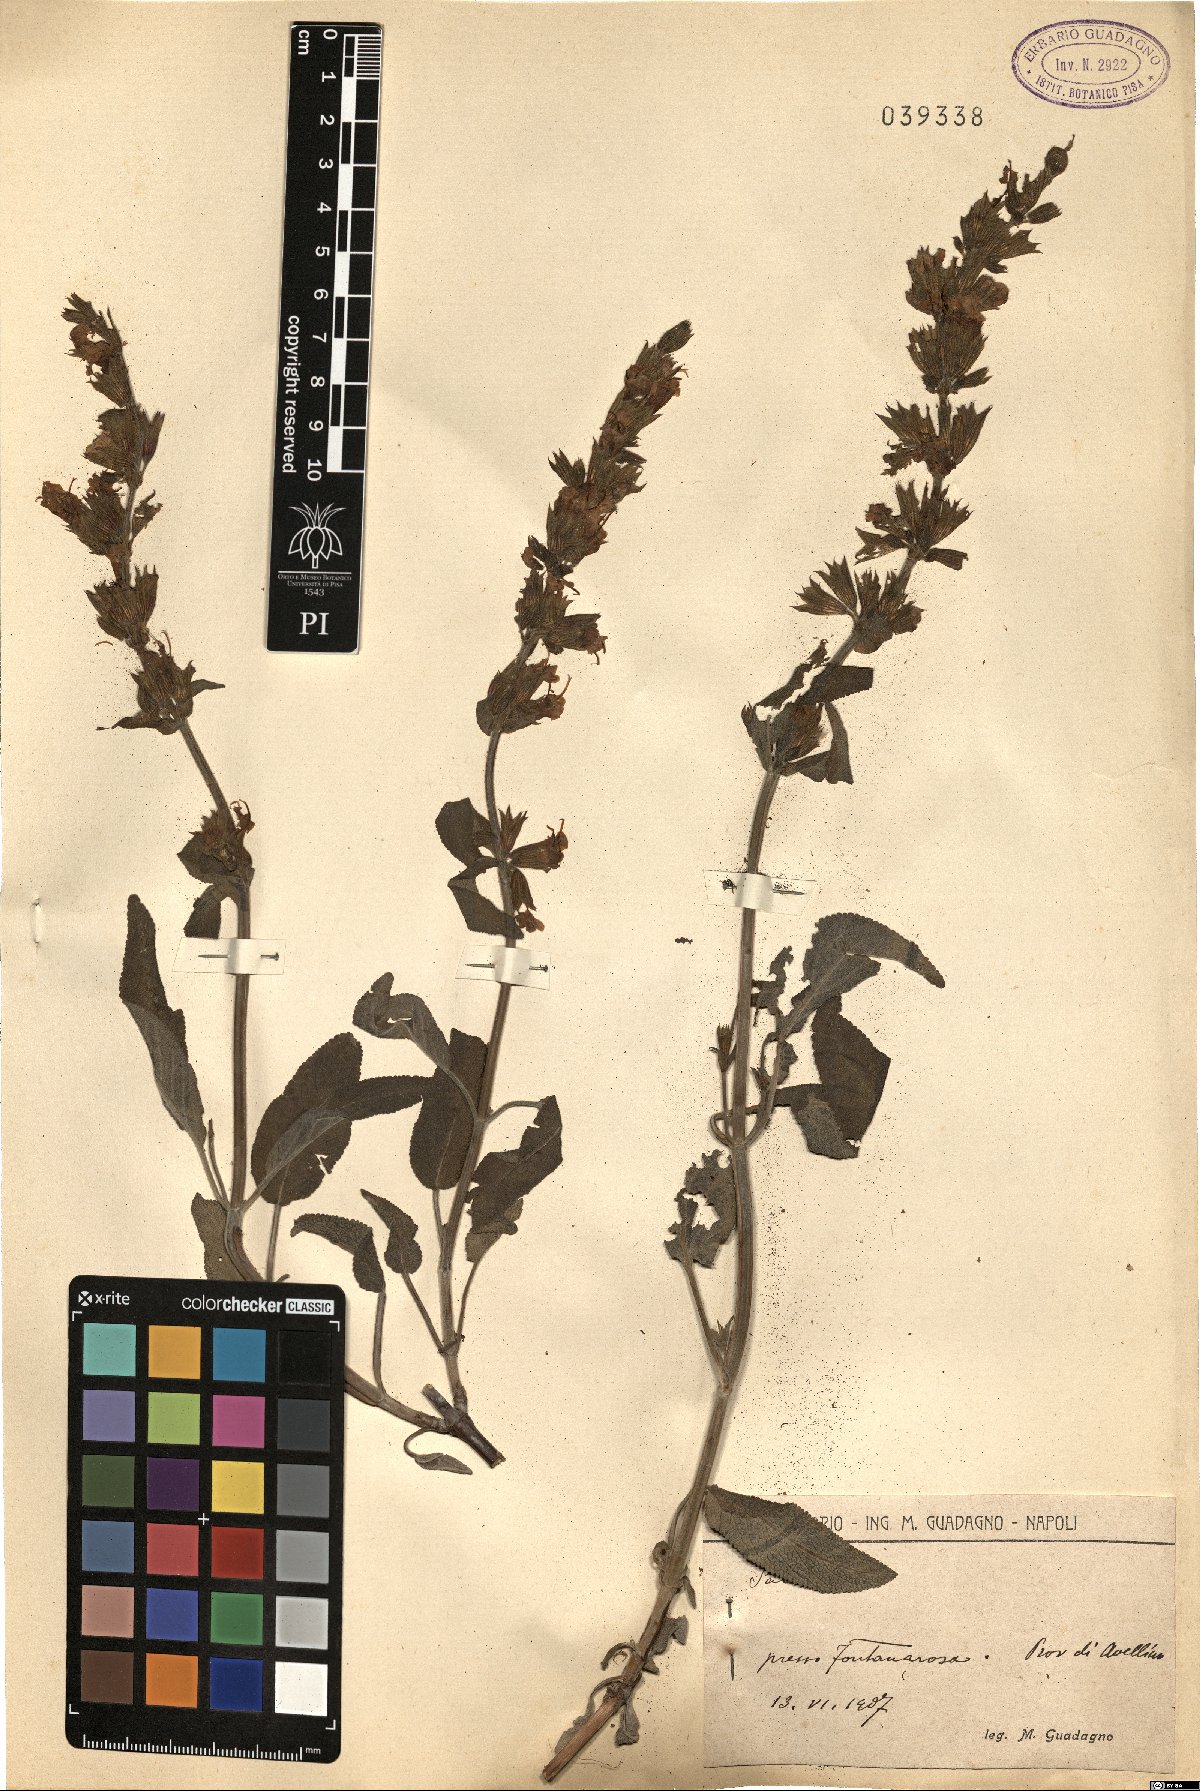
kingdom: Plantae
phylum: Tracheophyta
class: Magnoliopsida
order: Lamiales
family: Lamiaceae
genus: Salvia
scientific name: Salvia
